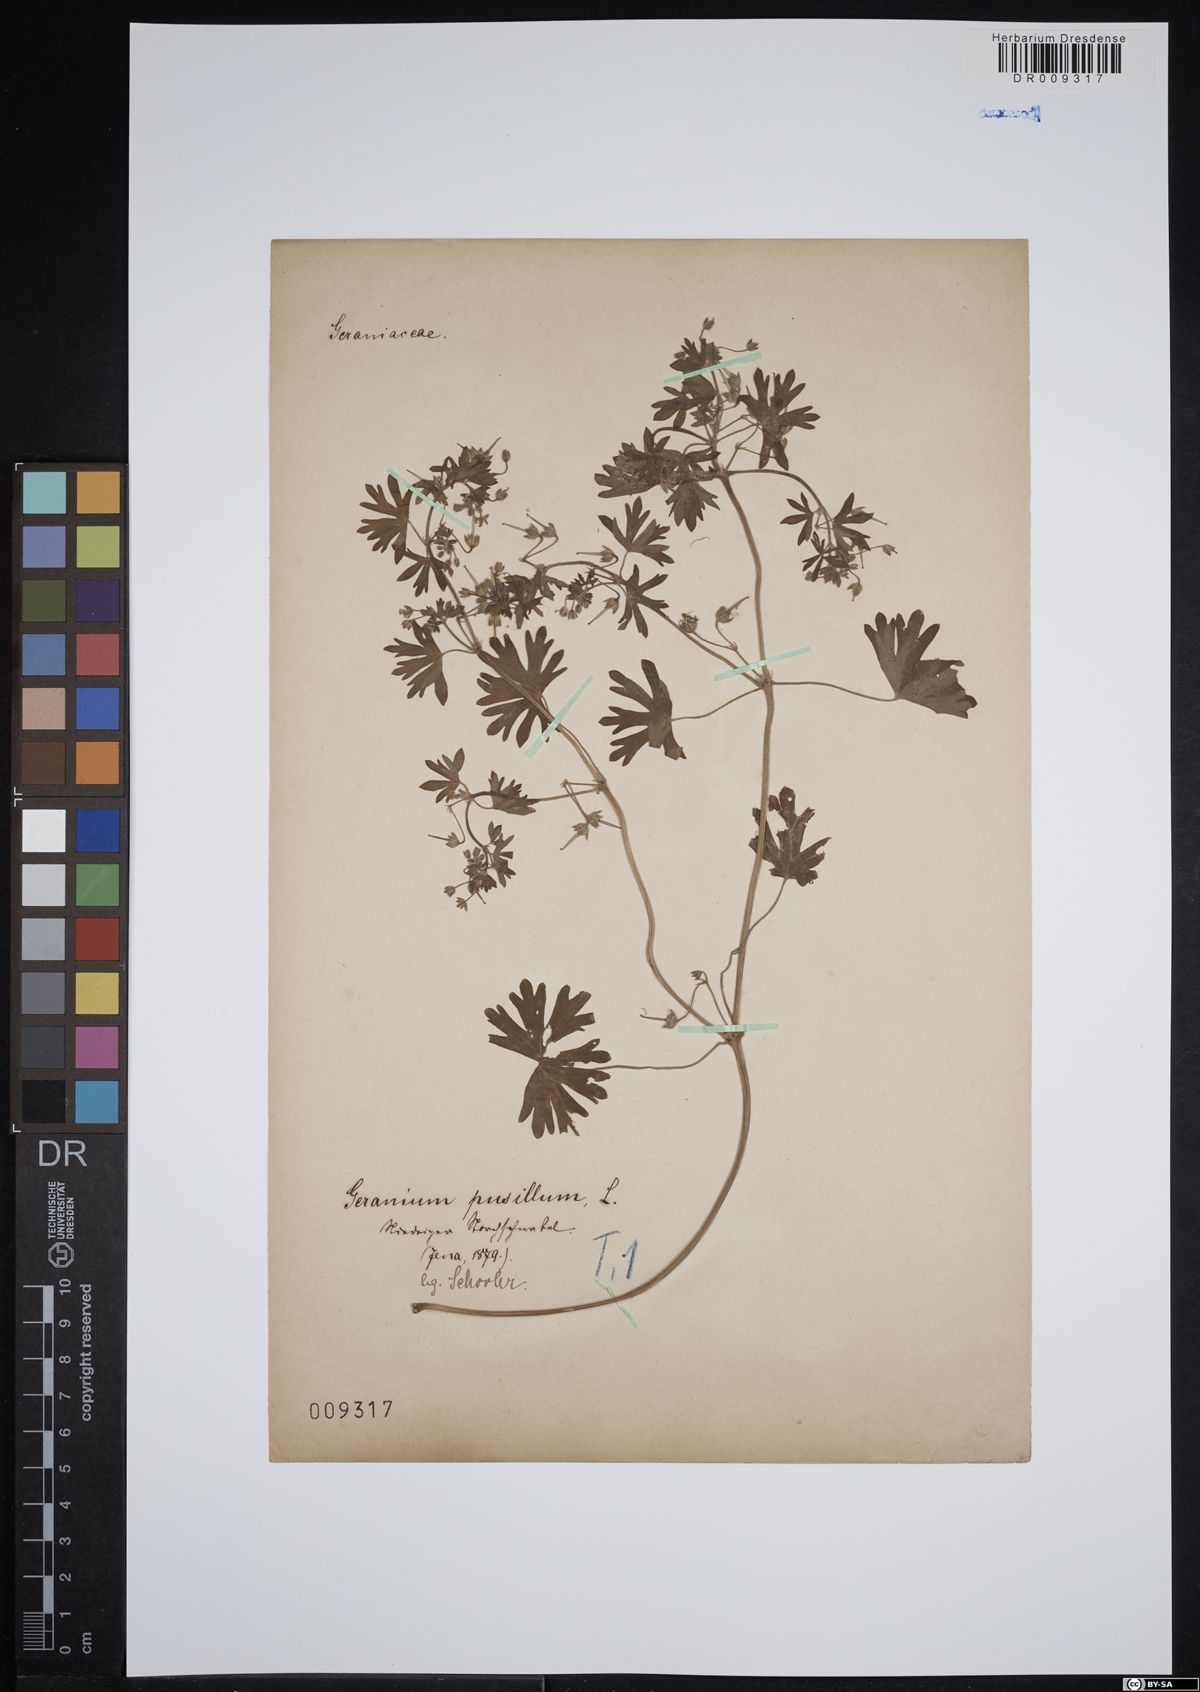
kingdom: Plantae
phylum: Tracheophyta
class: Magnoliopsida
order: Geraniales
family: Geraniaceae
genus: Geranium
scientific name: Geranium pusillum
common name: Small geranium
